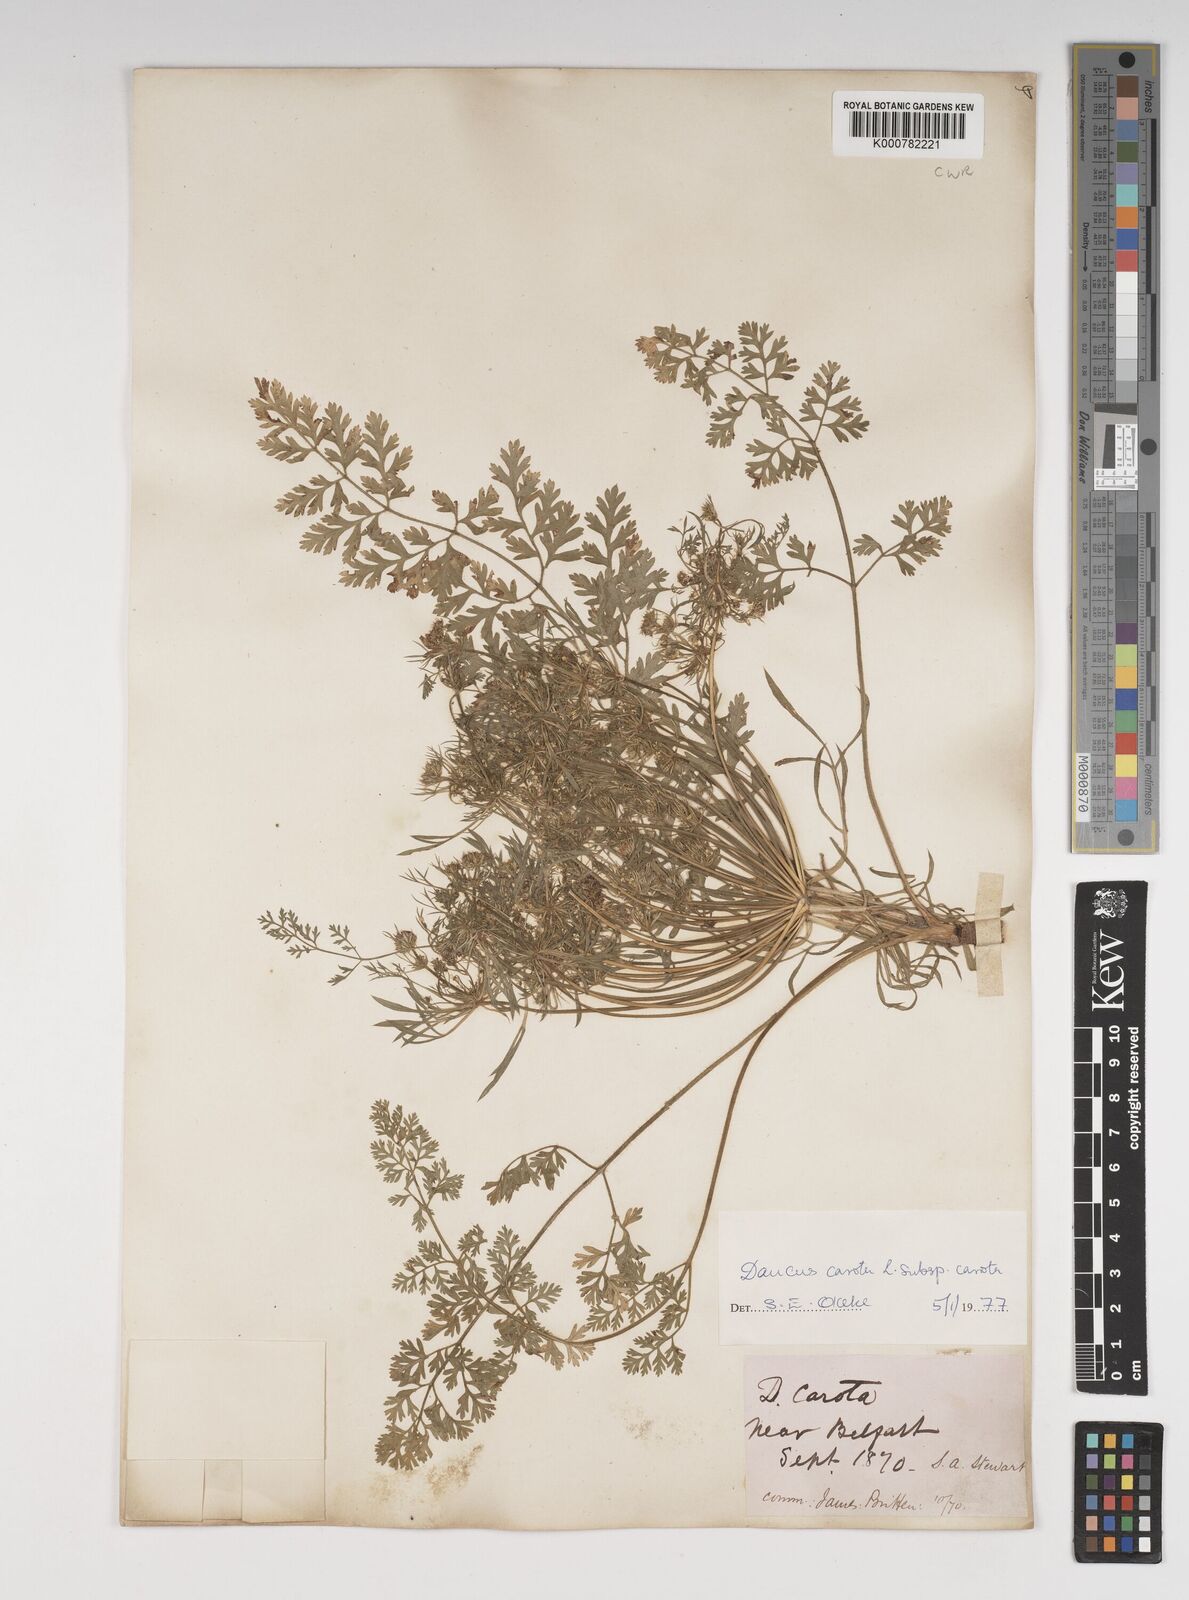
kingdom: Plantae
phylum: Tracheophyta
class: Magnoliopsida
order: Apiales
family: Apiaceae
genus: Daucus
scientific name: Daucus carota
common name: Wild carrot
